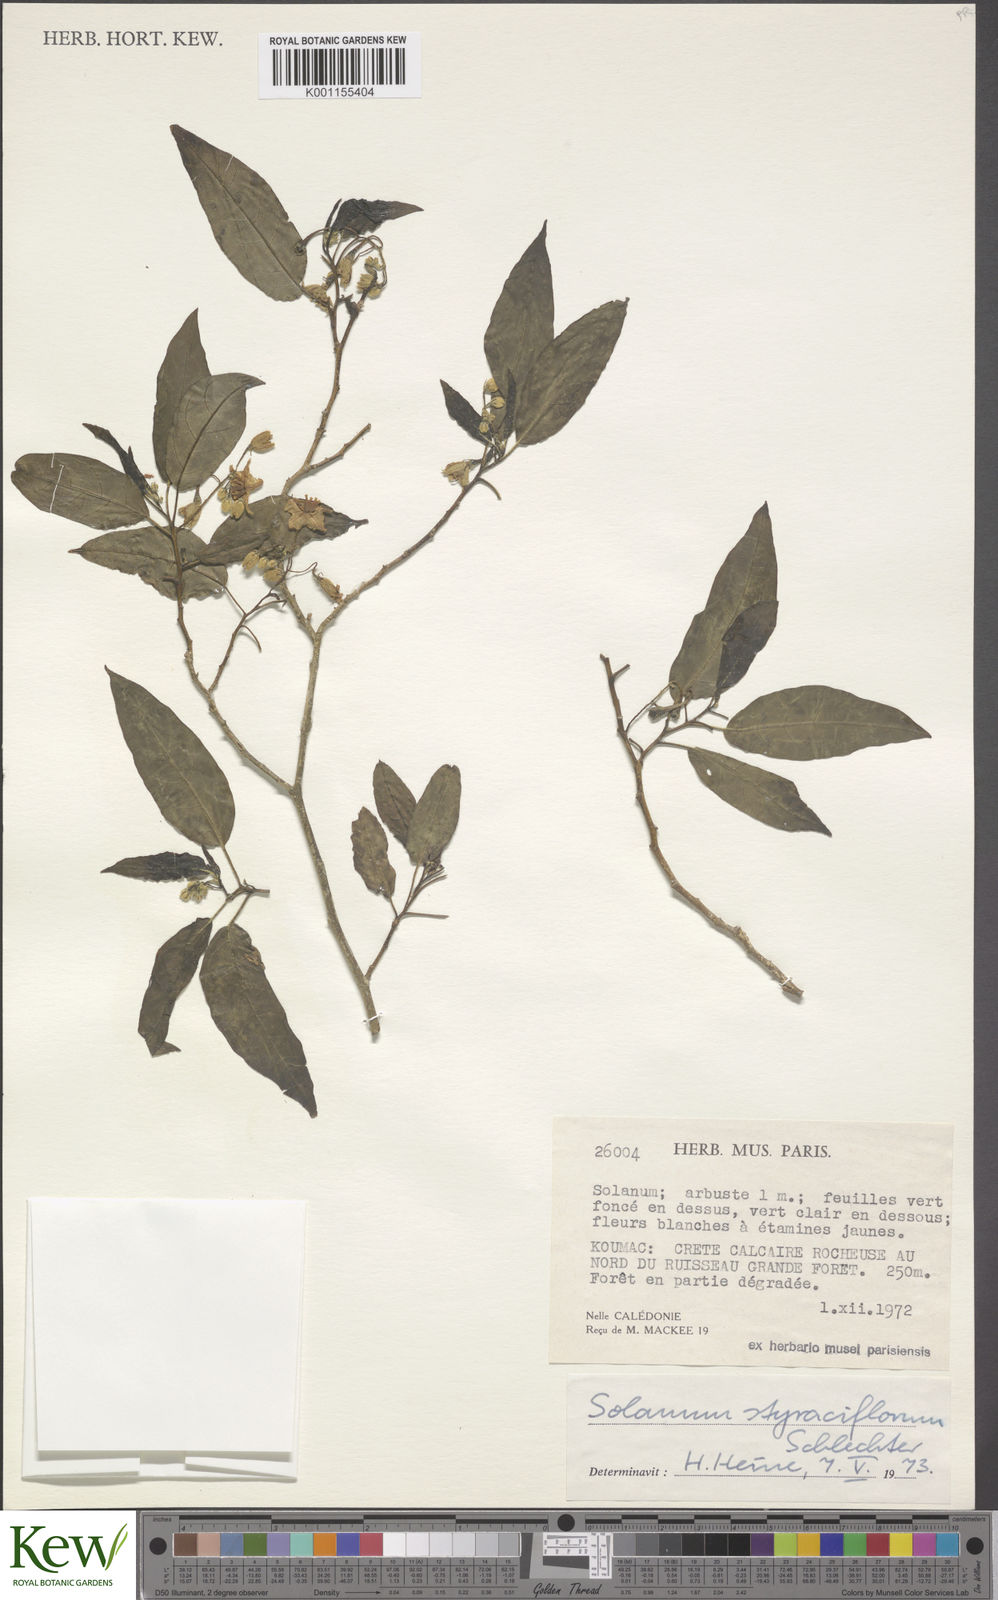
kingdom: Plantae
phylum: Tracheophyta
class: Magnoliopsida
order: Solanales
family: Solanaceae
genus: Solanum
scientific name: Solanum artense
